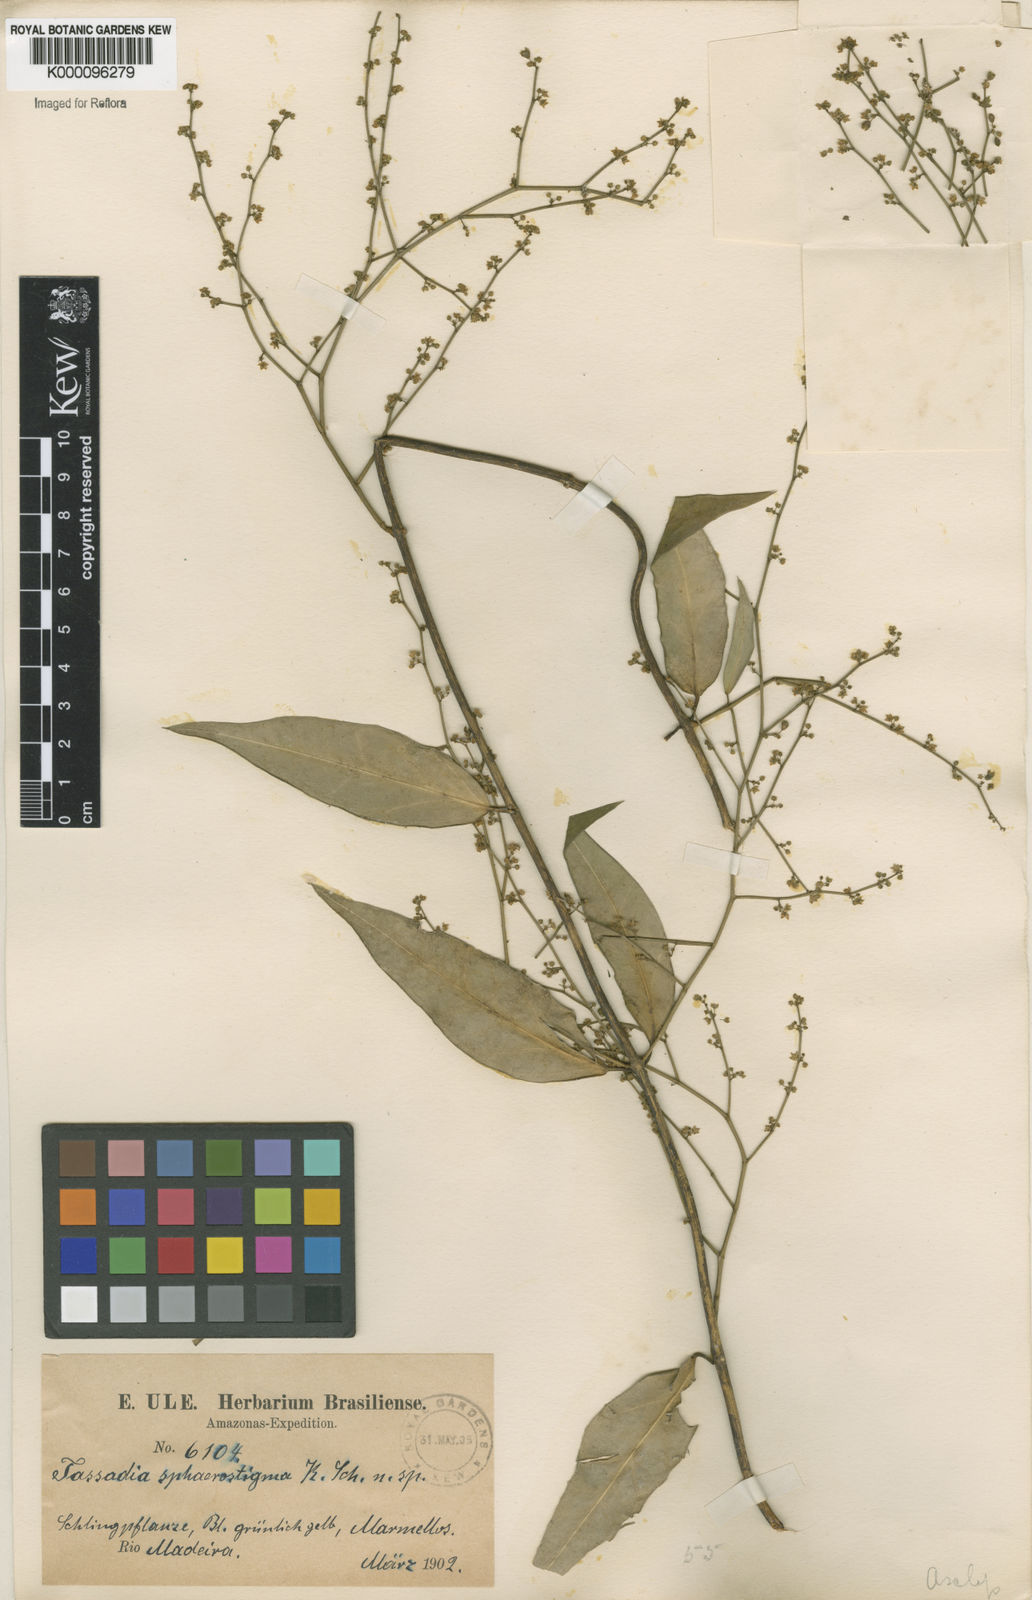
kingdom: Plantae
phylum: Tracheophyta
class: Magnoliopsida
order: Gentianales
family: Apocynaceae
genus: Tassadia
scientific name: Tassadia propinqua
